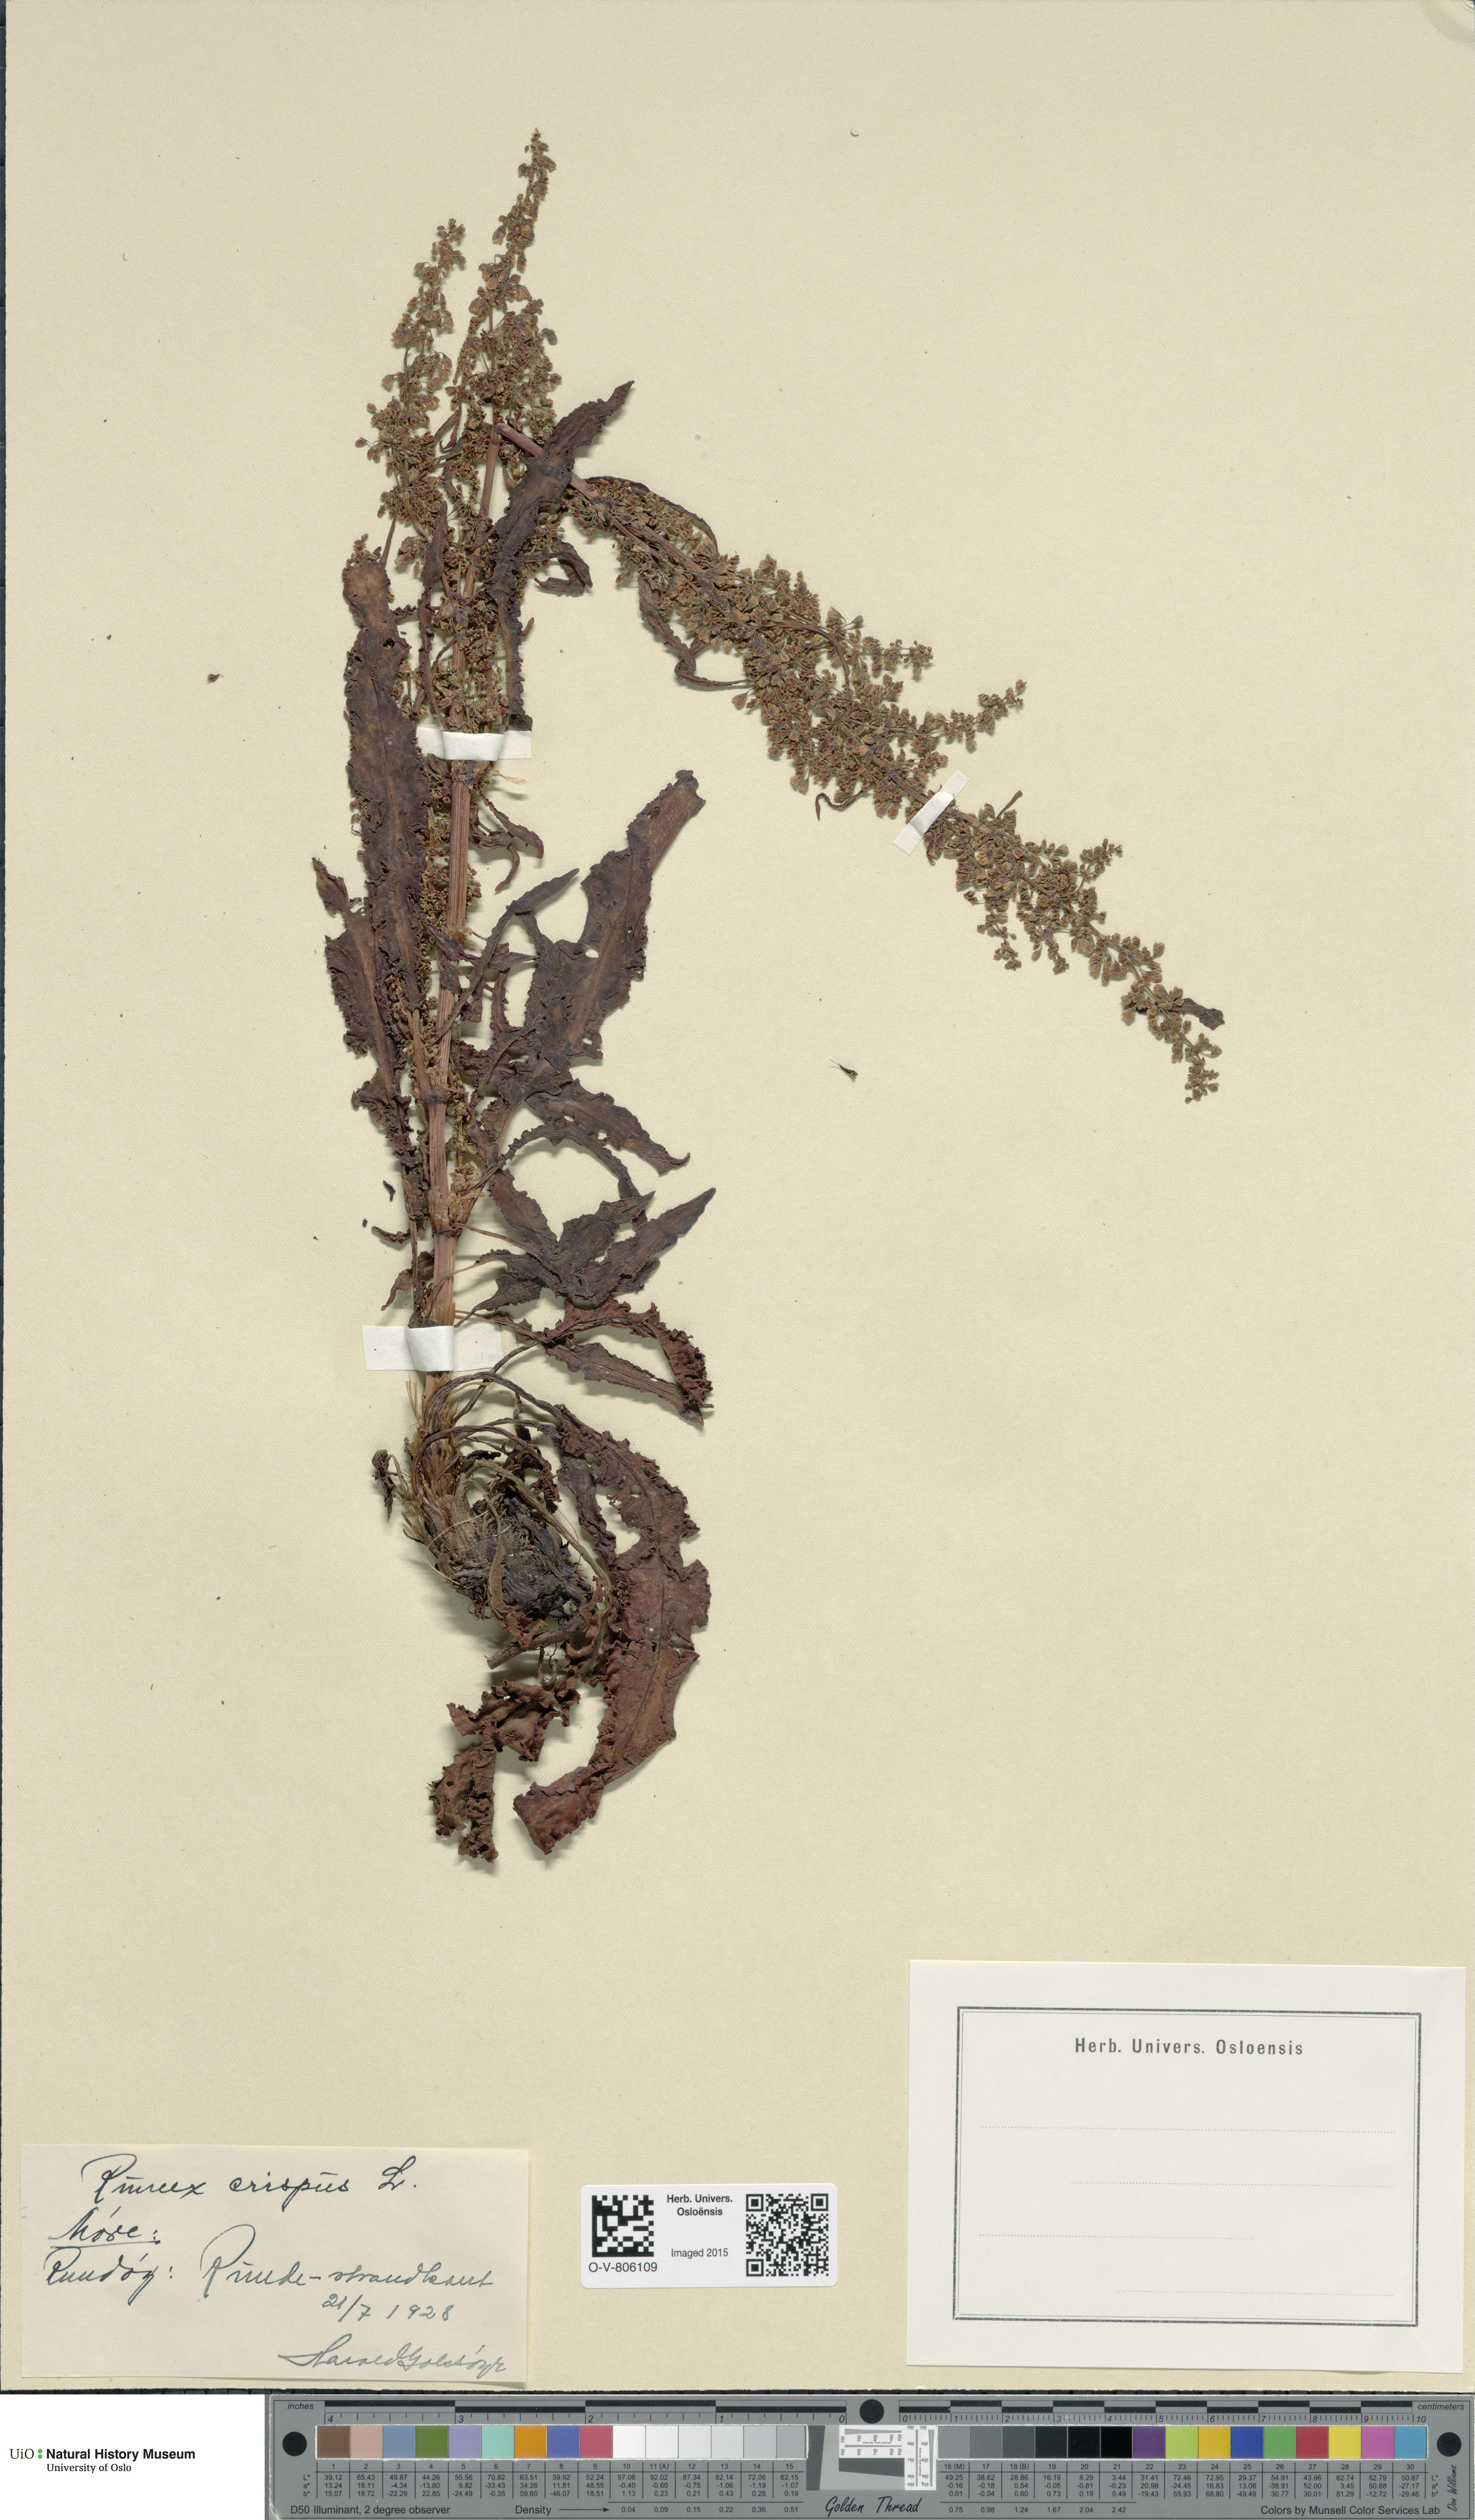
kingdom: Plantae
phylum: Tracheophyta
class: Magnoliopsida
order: Caryophyllales
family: Polygonaceae
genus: Rumex
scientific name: Rumex crispus
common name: Curled dock
